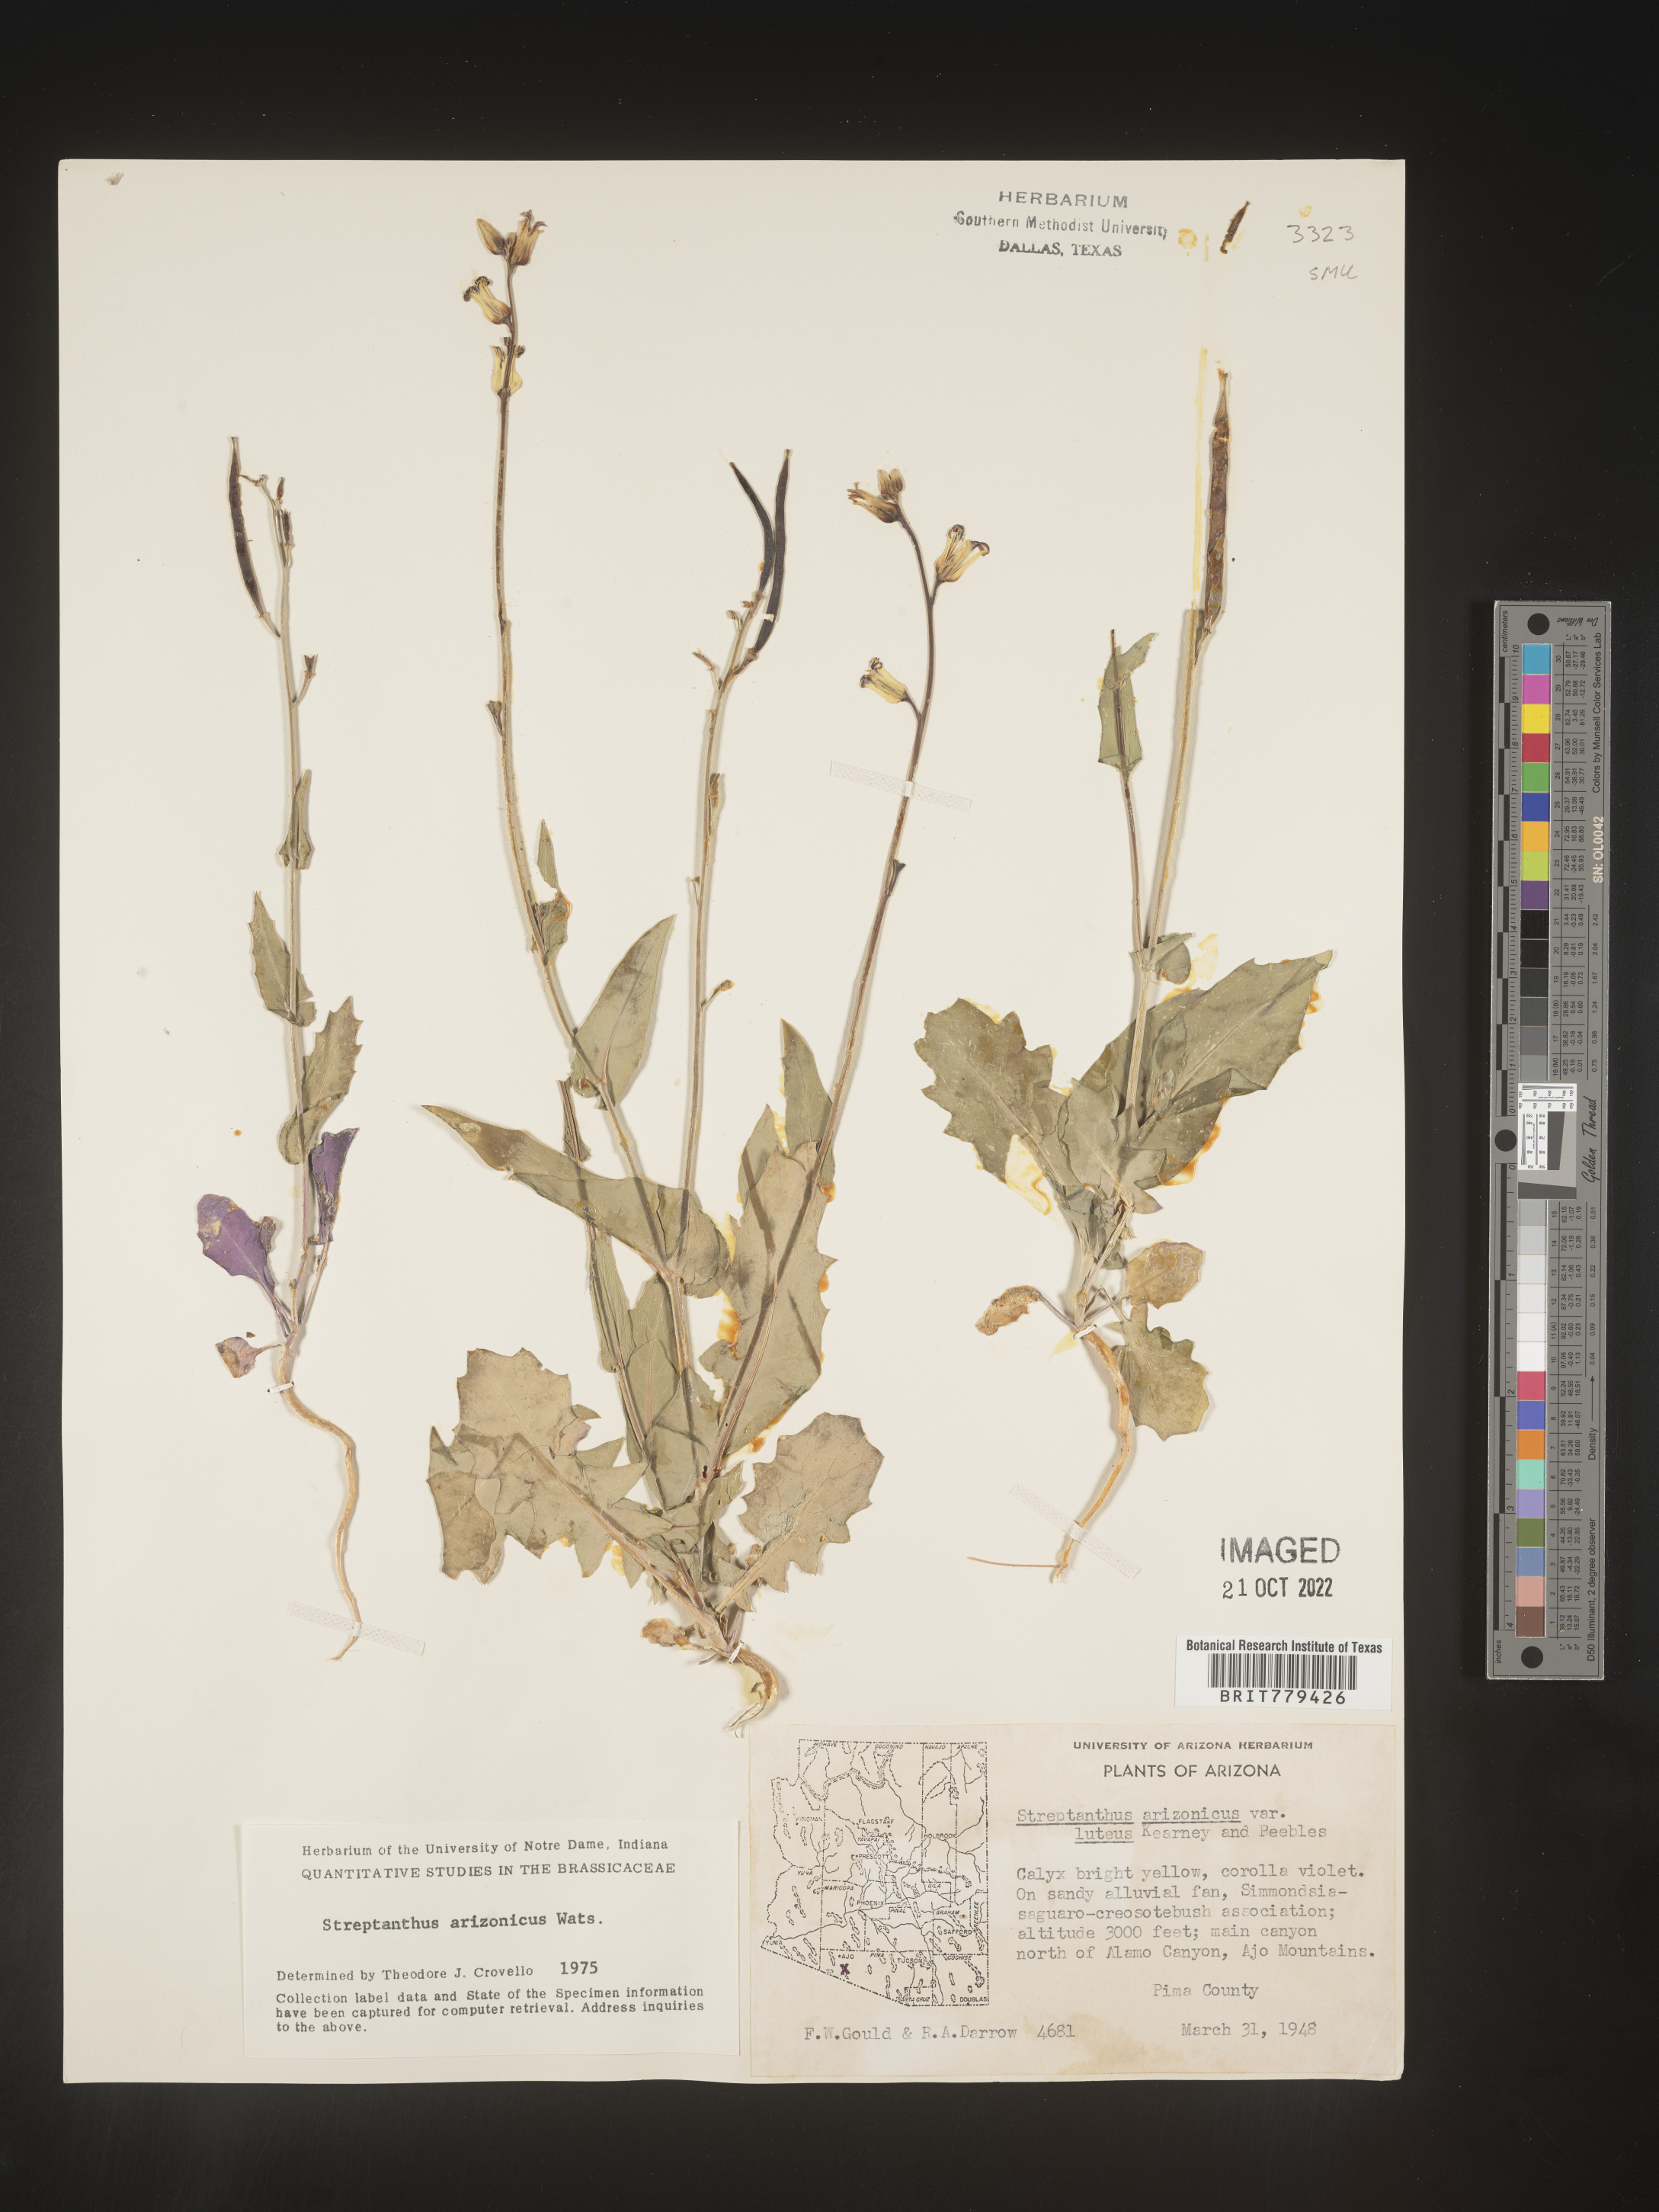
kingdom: Plantae
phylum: Tracheophyta
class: Magnoliopsida
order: Brassicales
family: Brassicaceae
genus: Streptanthus
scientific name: Streptanthus
